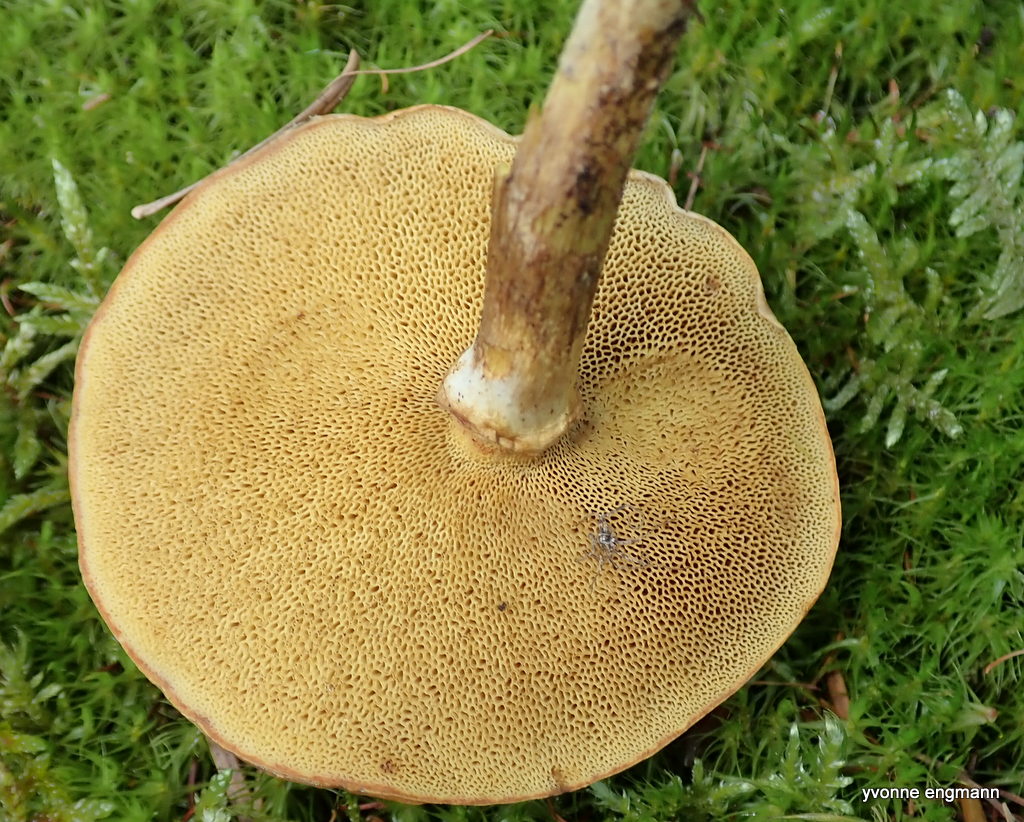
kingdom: Fungi
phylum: Basidiomycota
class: Agaricomycetes
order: Boletales
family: Suillaceae
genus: Suillus
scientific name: Suillus grevillei
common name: lærke-slimrørhat
